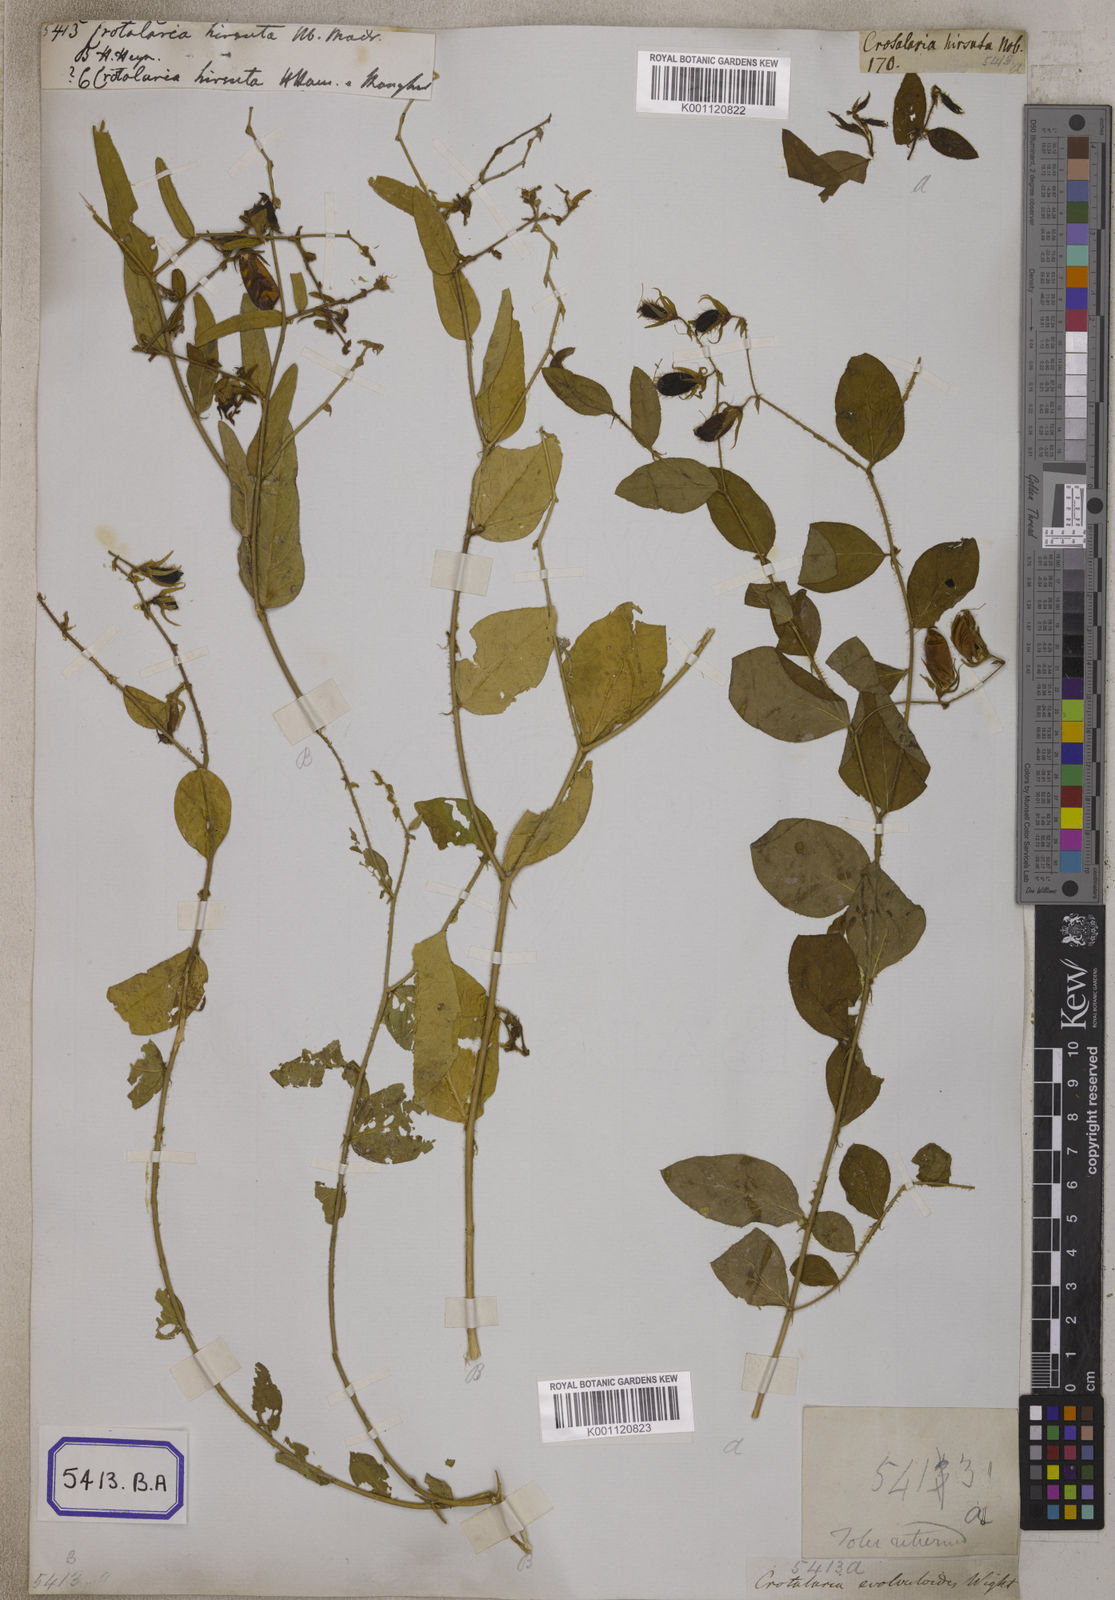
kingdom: Plantae
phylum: Tracheophyta
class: Magnoliopsida
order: Fabales
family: Fabaceae
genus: Crotalaria
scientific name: Crotalaria
